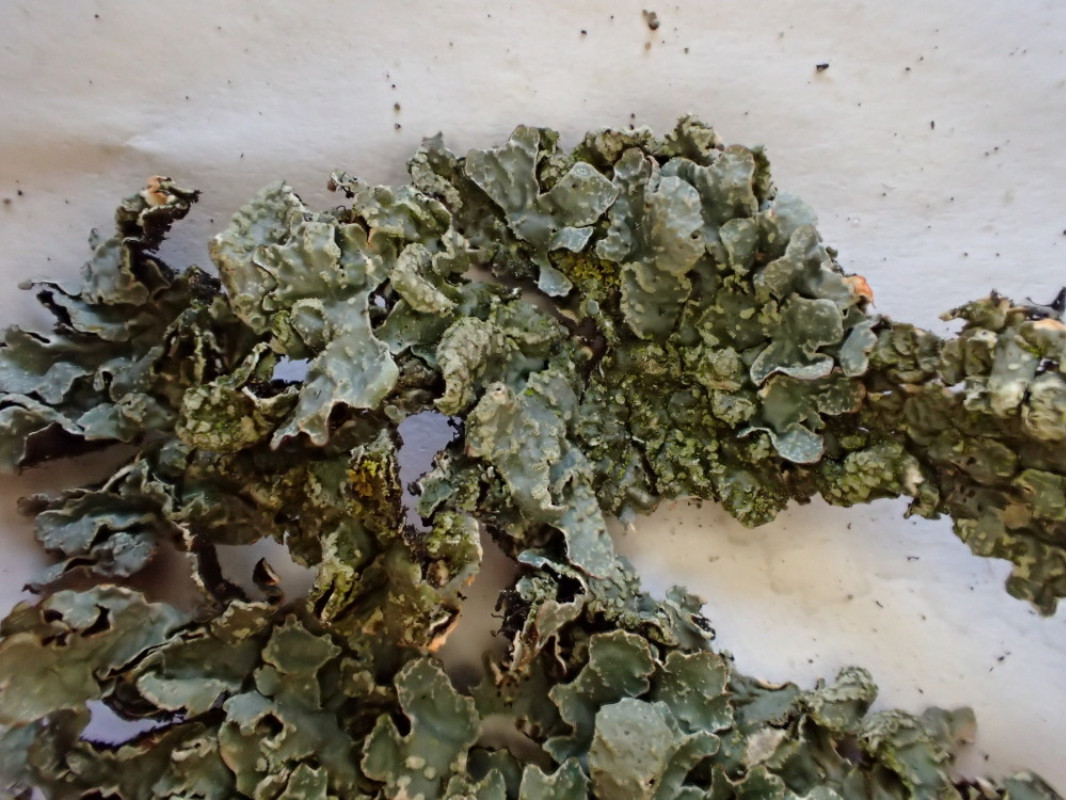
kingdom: Fungi
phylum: Ascomycota
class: Lecanoromycetes
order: Lecanorales
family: Parmeliaceae
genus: Parmelia
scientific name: Parmelia sulcata
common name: rynket skållav
